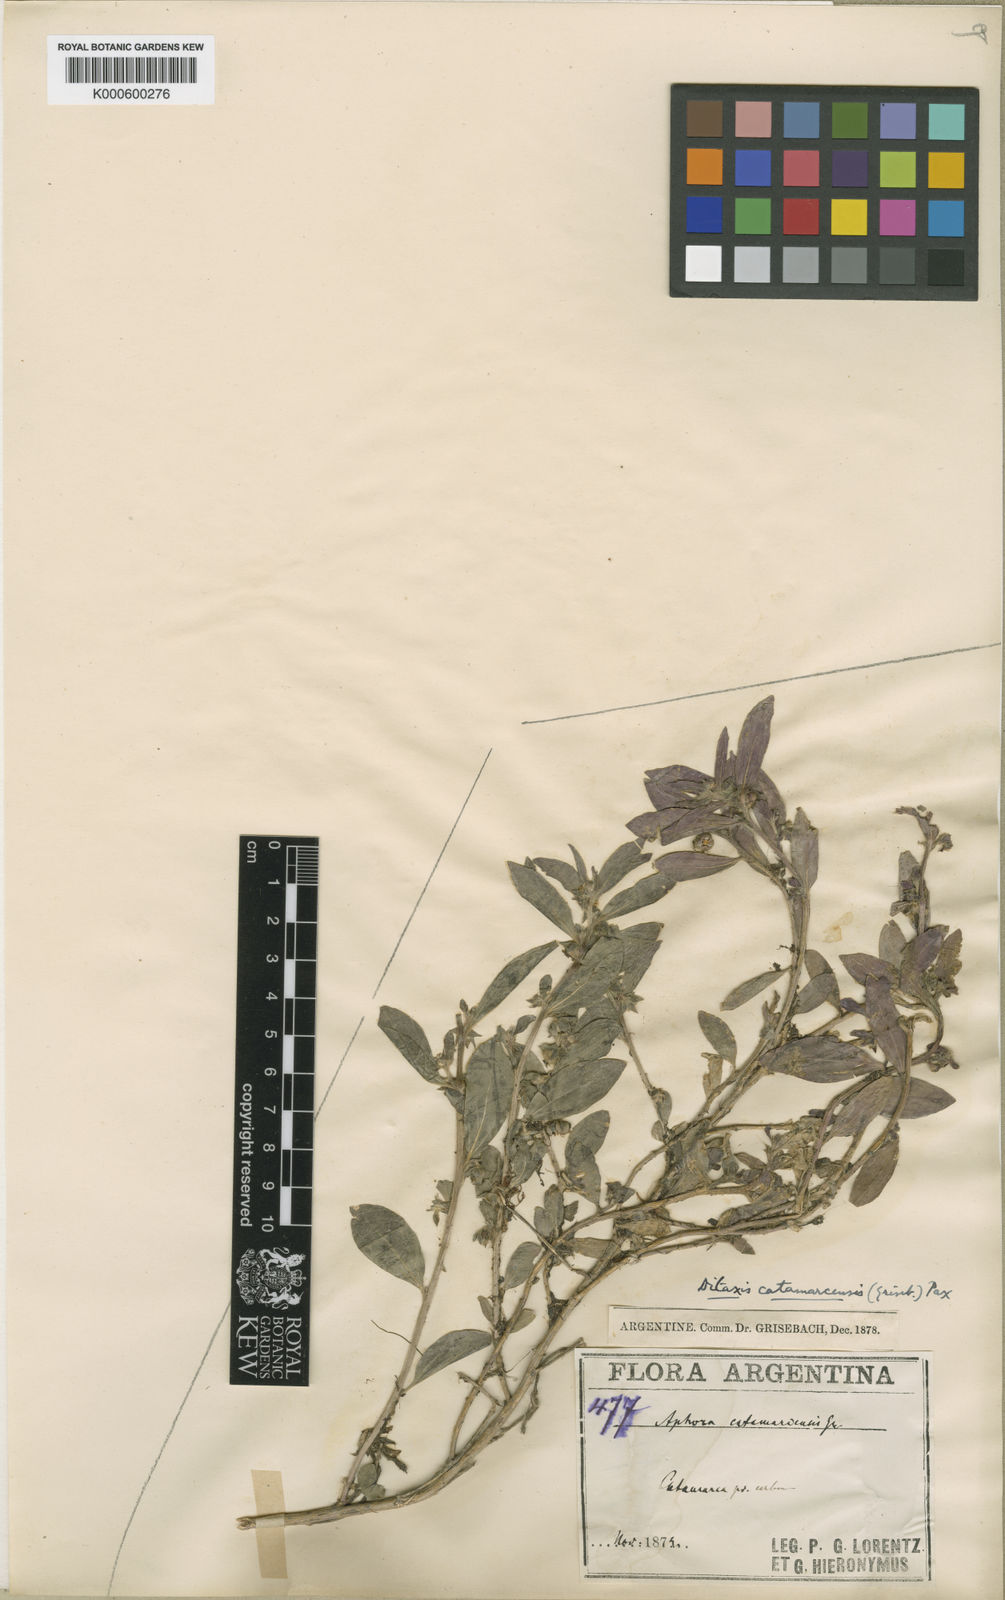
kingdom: Plantae
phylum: Tracheophyta
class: Magnoliopsida
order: Malpighiales
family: Euphorbiaceae
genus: Ditaxis
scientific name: Ditaxis catamarcensis
